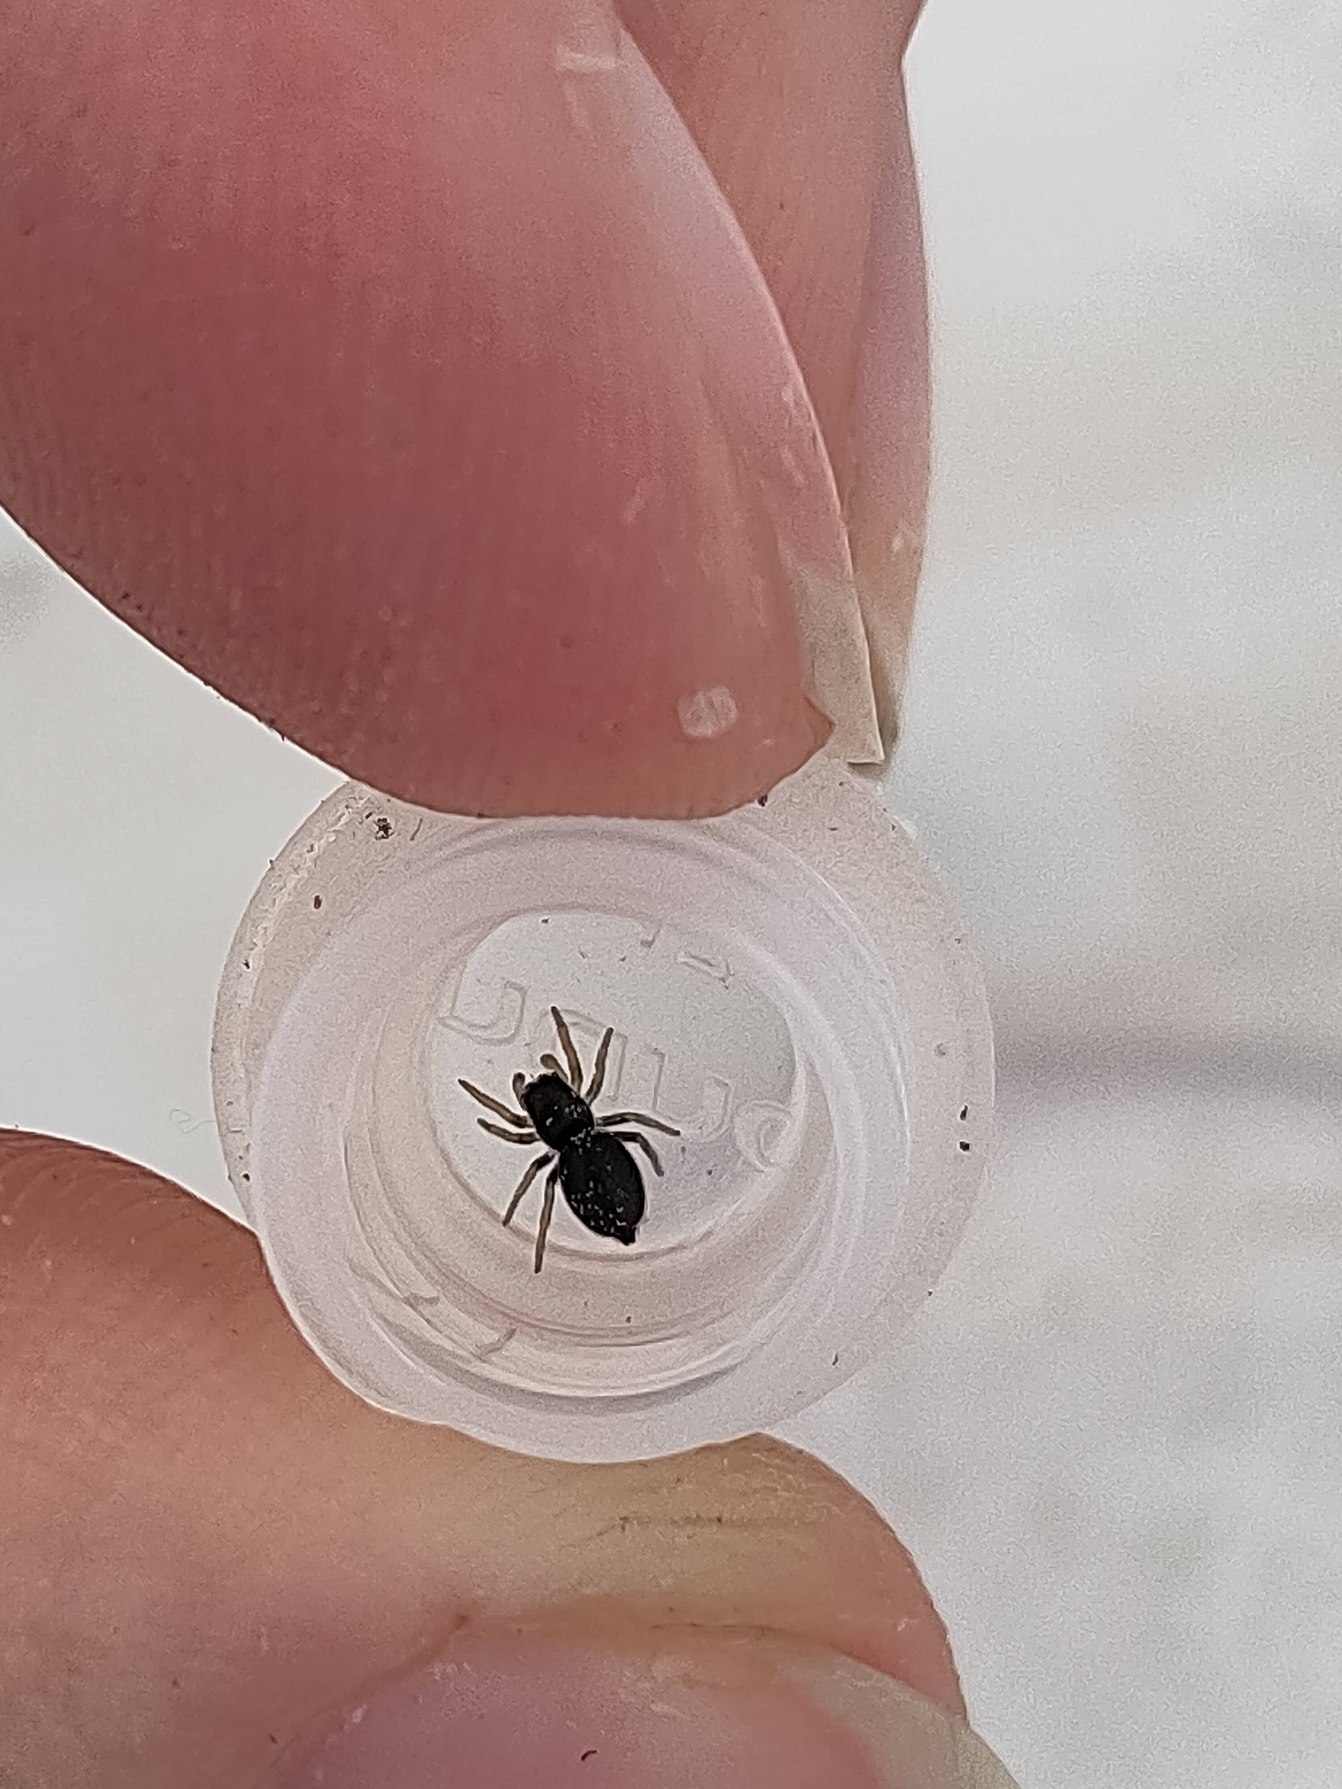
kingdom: Animalia
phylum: Arthropoda
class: Arachnida
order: Araneae
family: Salticidae
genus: Heliophanus
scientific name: Heliophanus
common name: Sortspringerslægten
